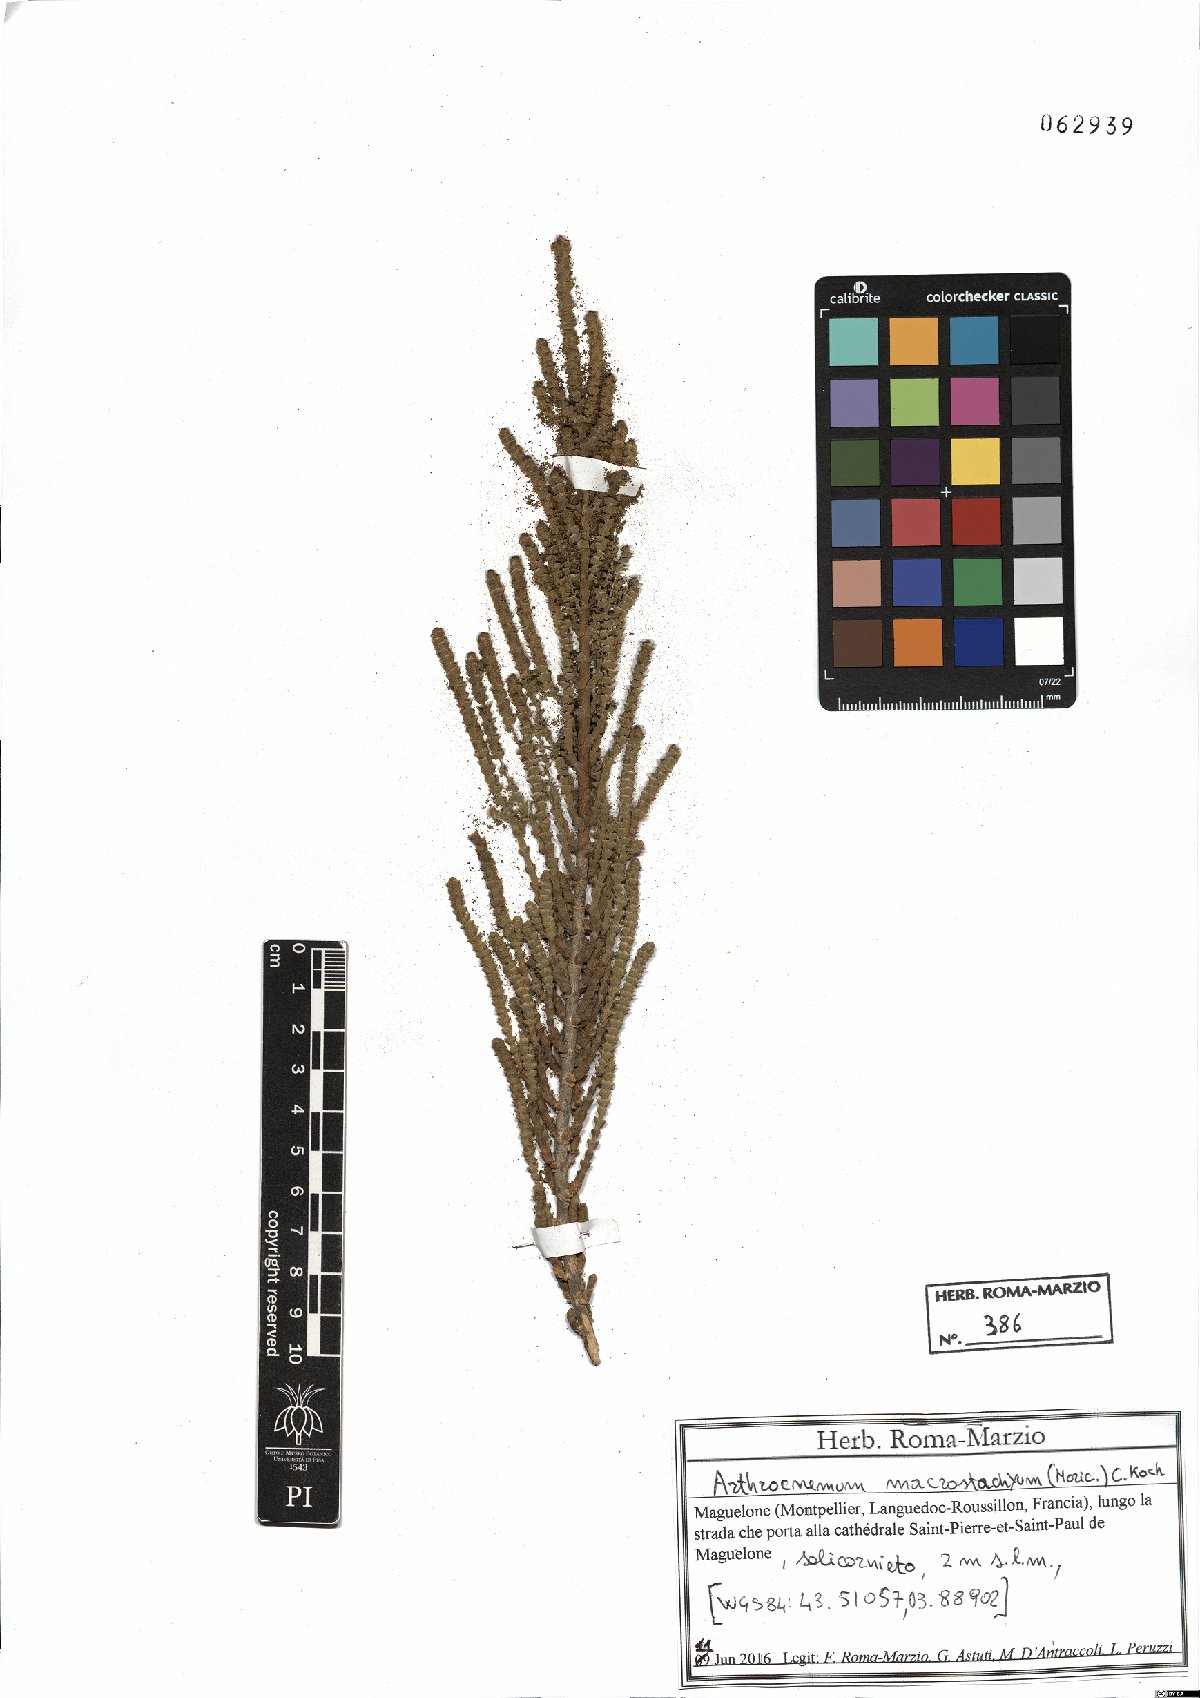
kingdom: Plantae
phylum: Tracheophyta
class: Magnoliopsida
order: Caryophyllales
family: Amaranthaceae
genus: Arthrocaulon
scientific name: Arthrocaulon macrostachyum
